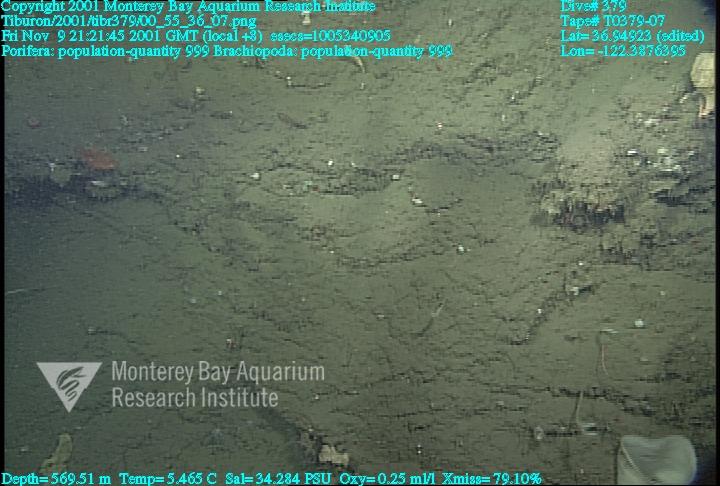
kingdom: Animalia
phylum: Porifera
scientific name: Porifera
